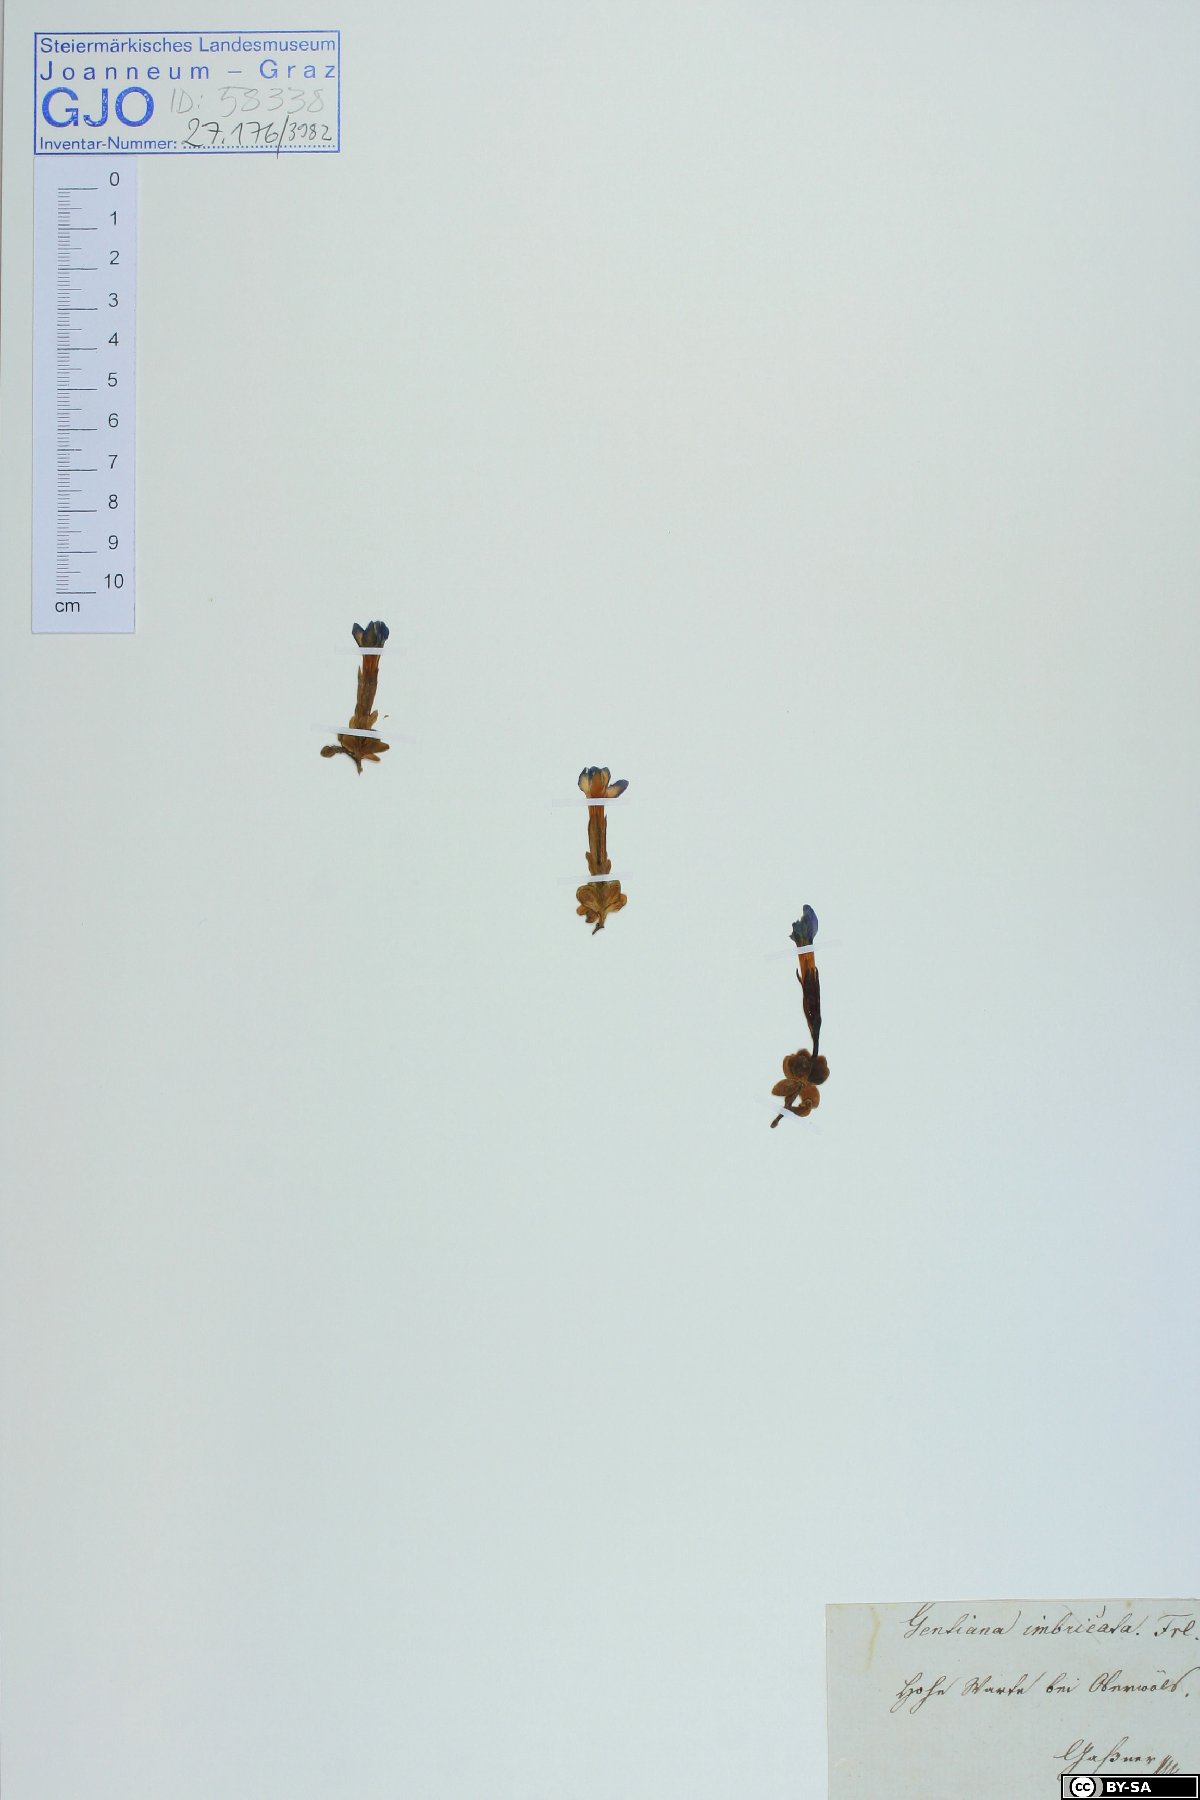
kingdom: Plantae
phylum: Tracheophyta
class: Magnoliopsida
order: Gentianales
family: Gentianaceae
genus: Gentiana
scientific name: Gentiana orbicularis
